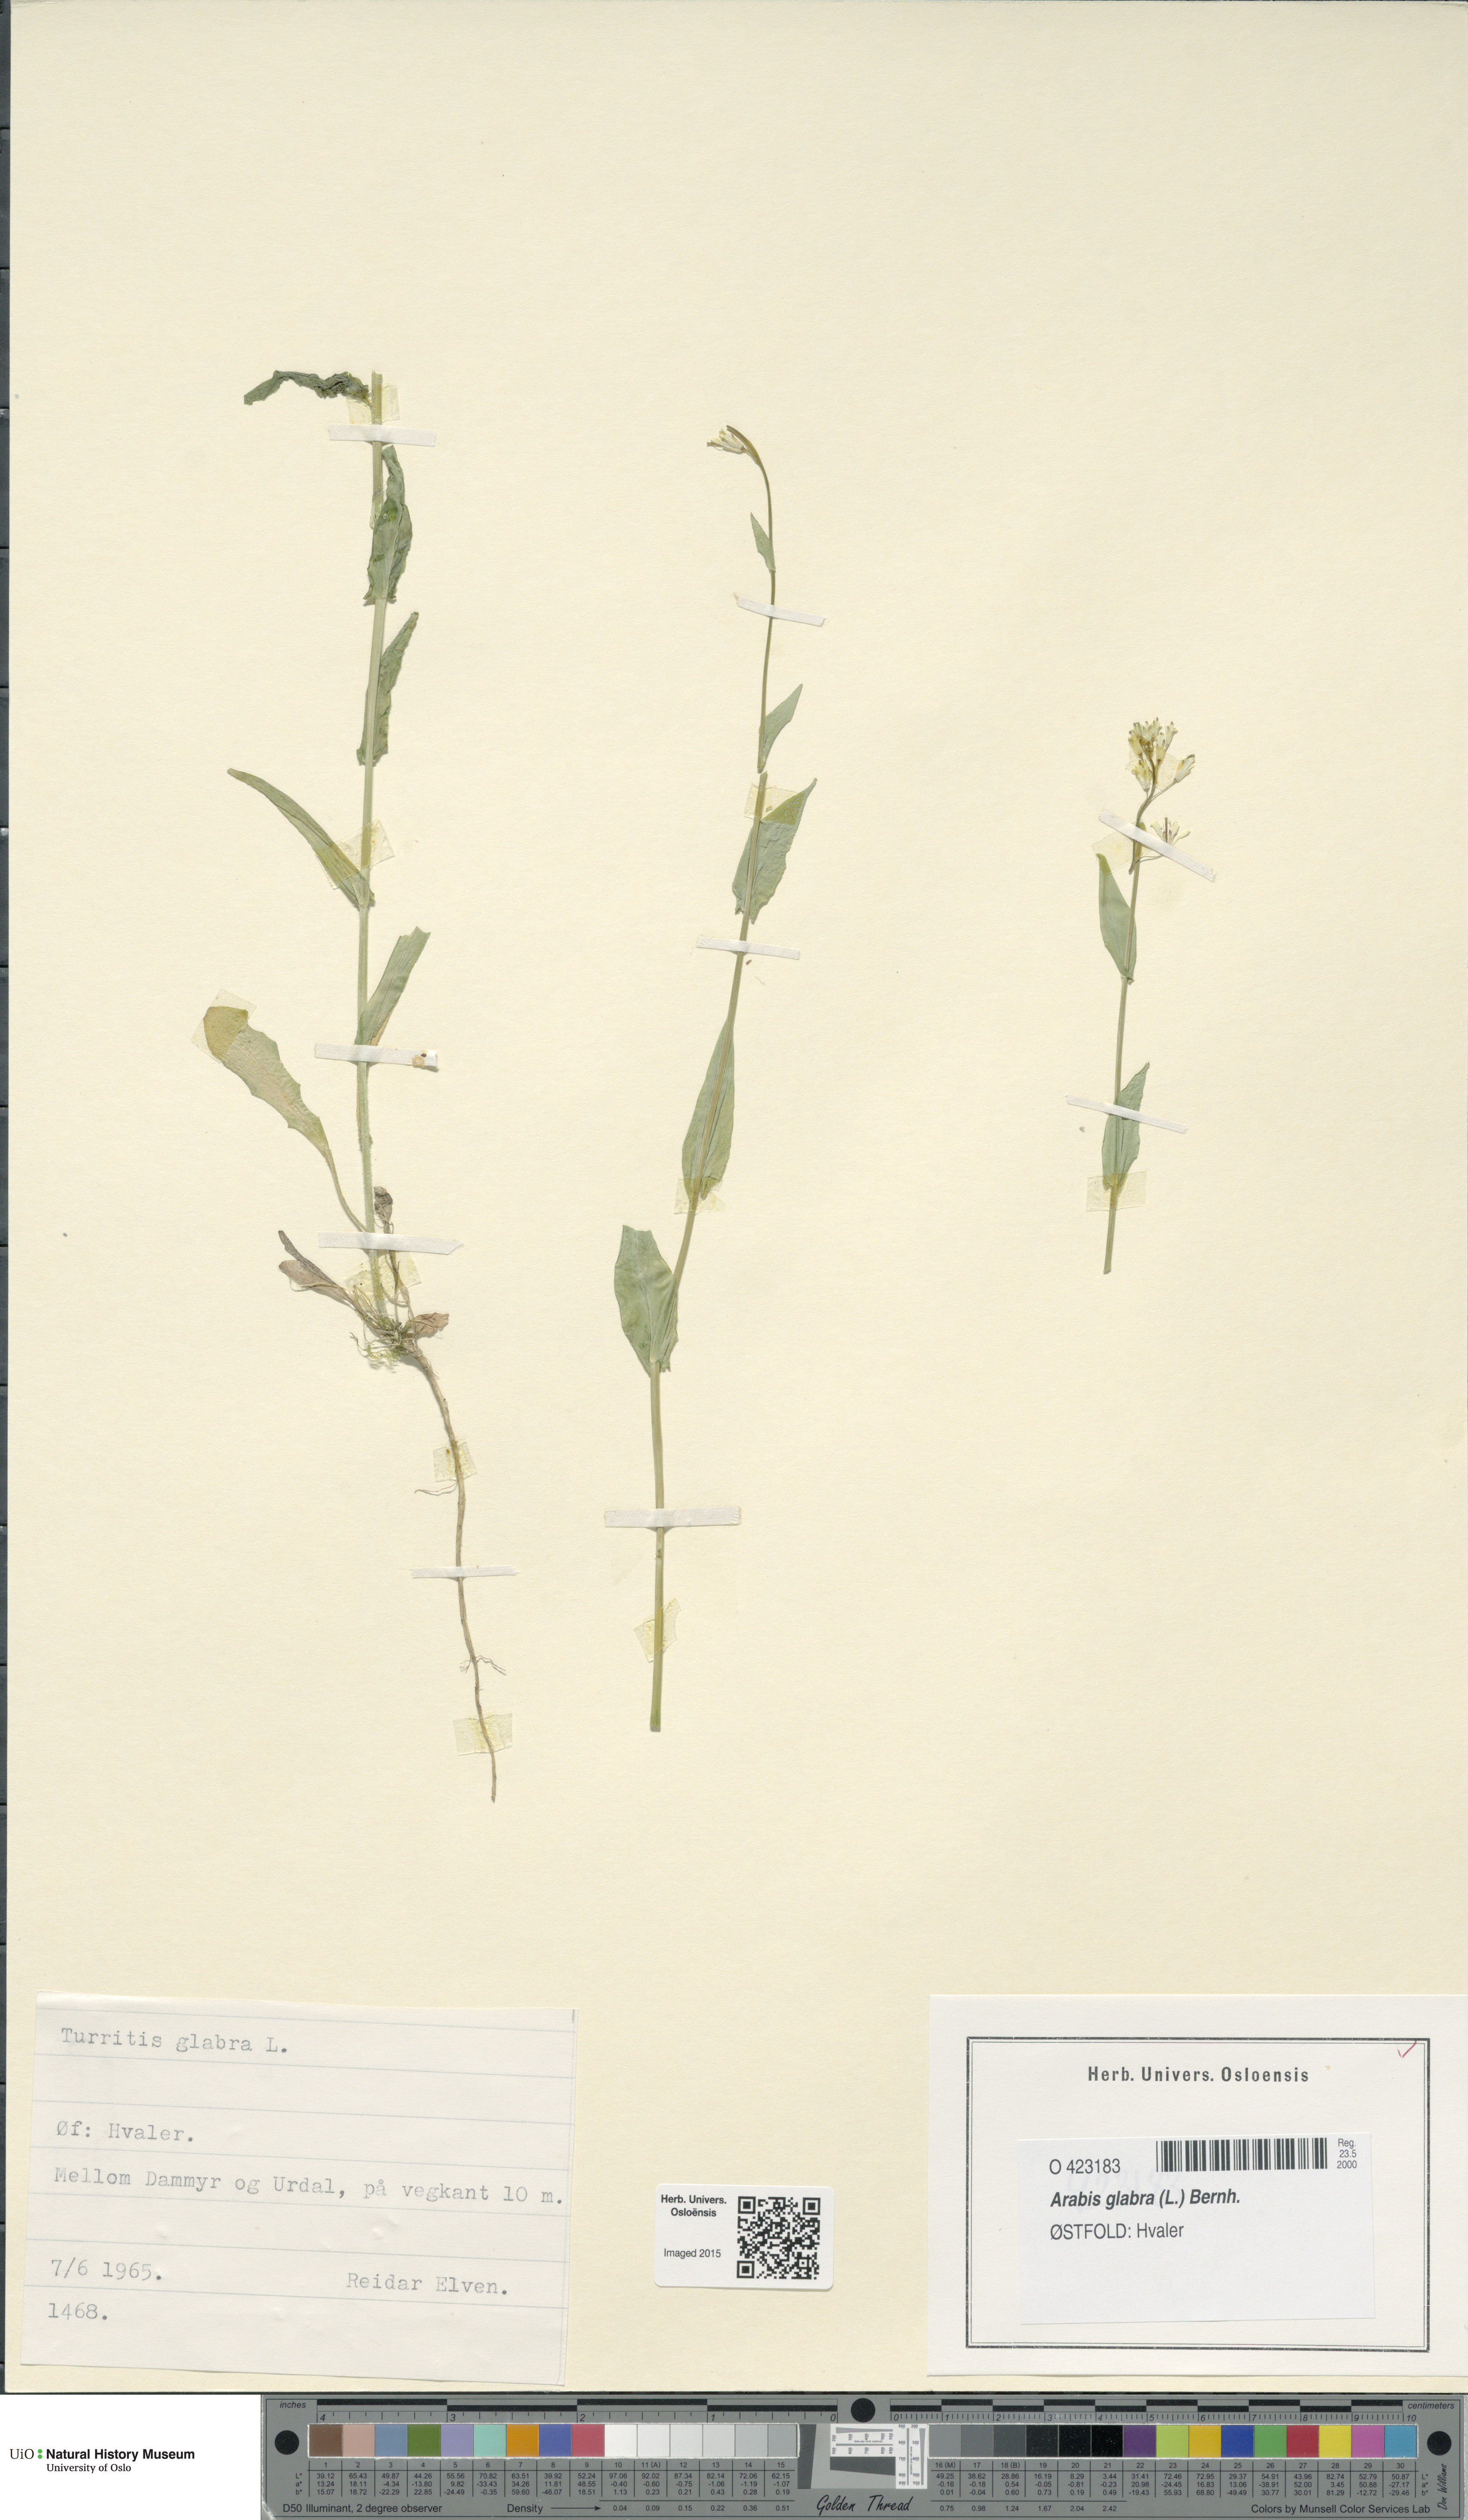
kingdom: Plantae
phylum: Tracheophyta
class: Magnoliopsida
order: Brassicales
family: Brassicaceae
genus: Turritis
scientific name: Turritis glabra
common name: Tower rockcress
